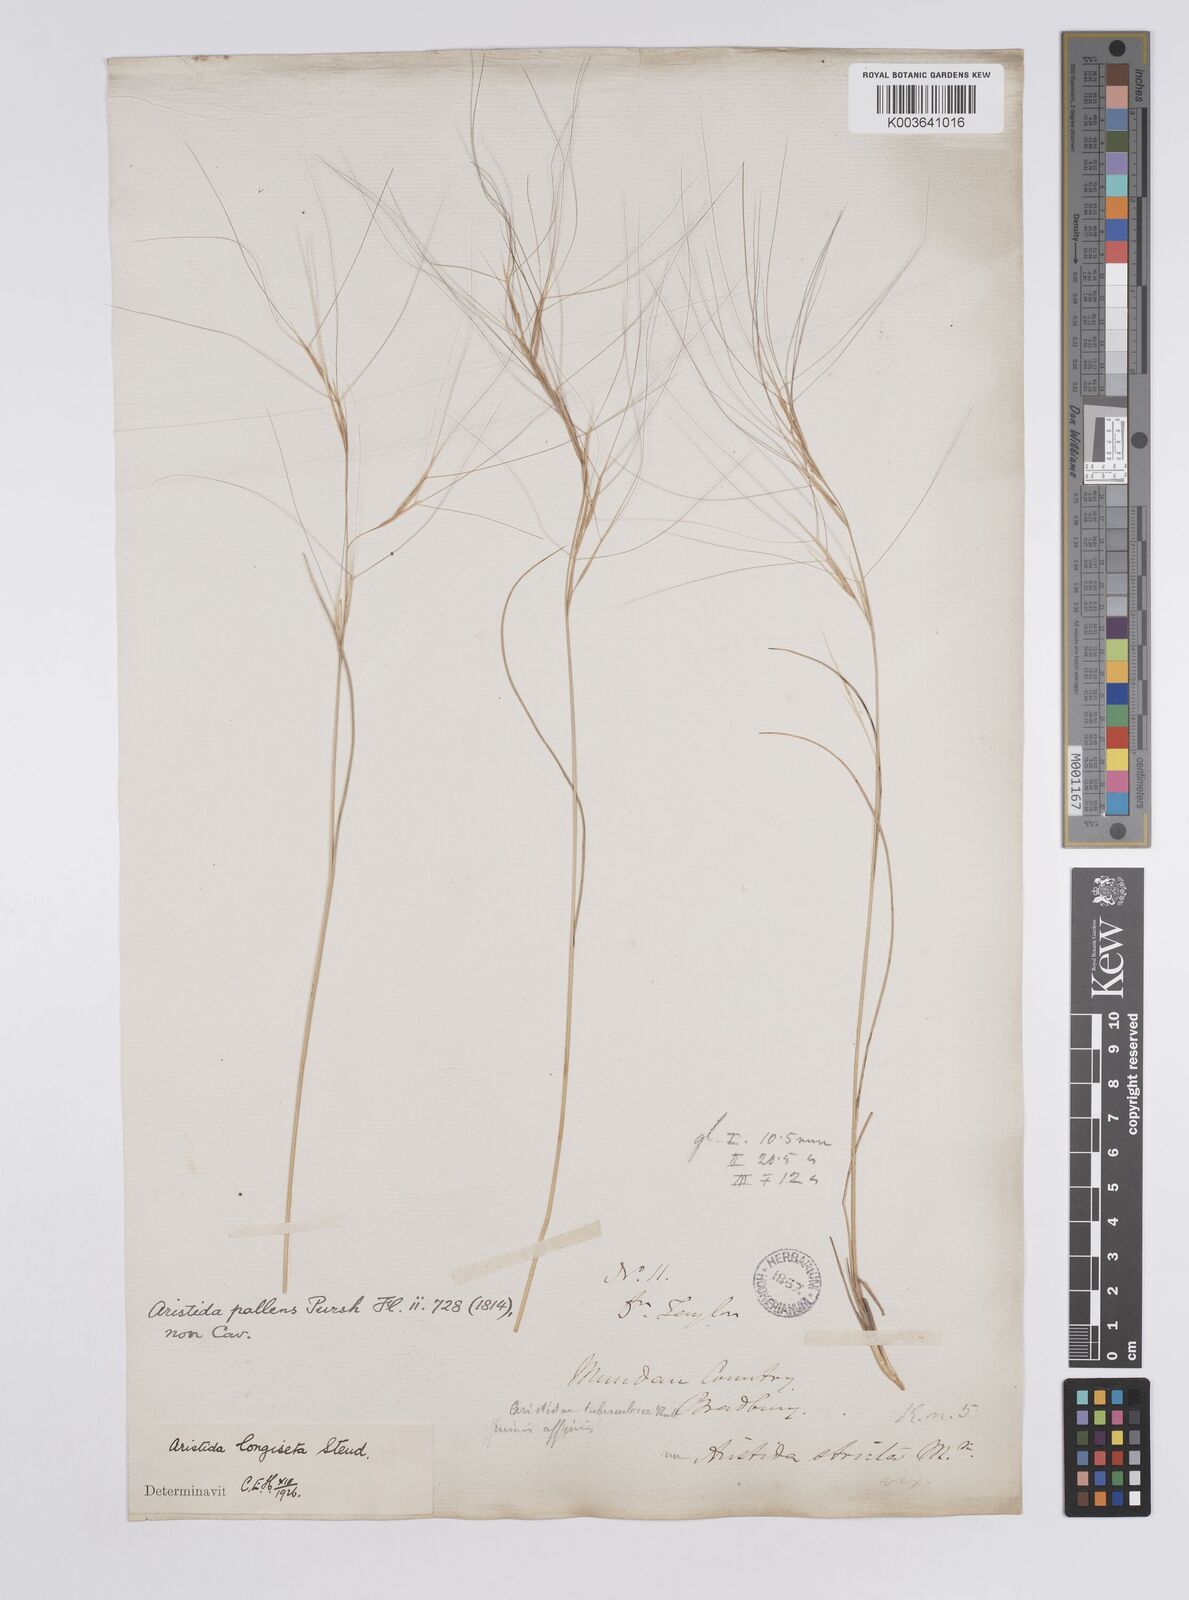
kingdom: Plantae
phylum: Tracheophyta
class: Liliopsida
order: Poales
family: Poaceae
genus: Aristida
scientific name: Aristida purpurea
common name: Purple threeawn
